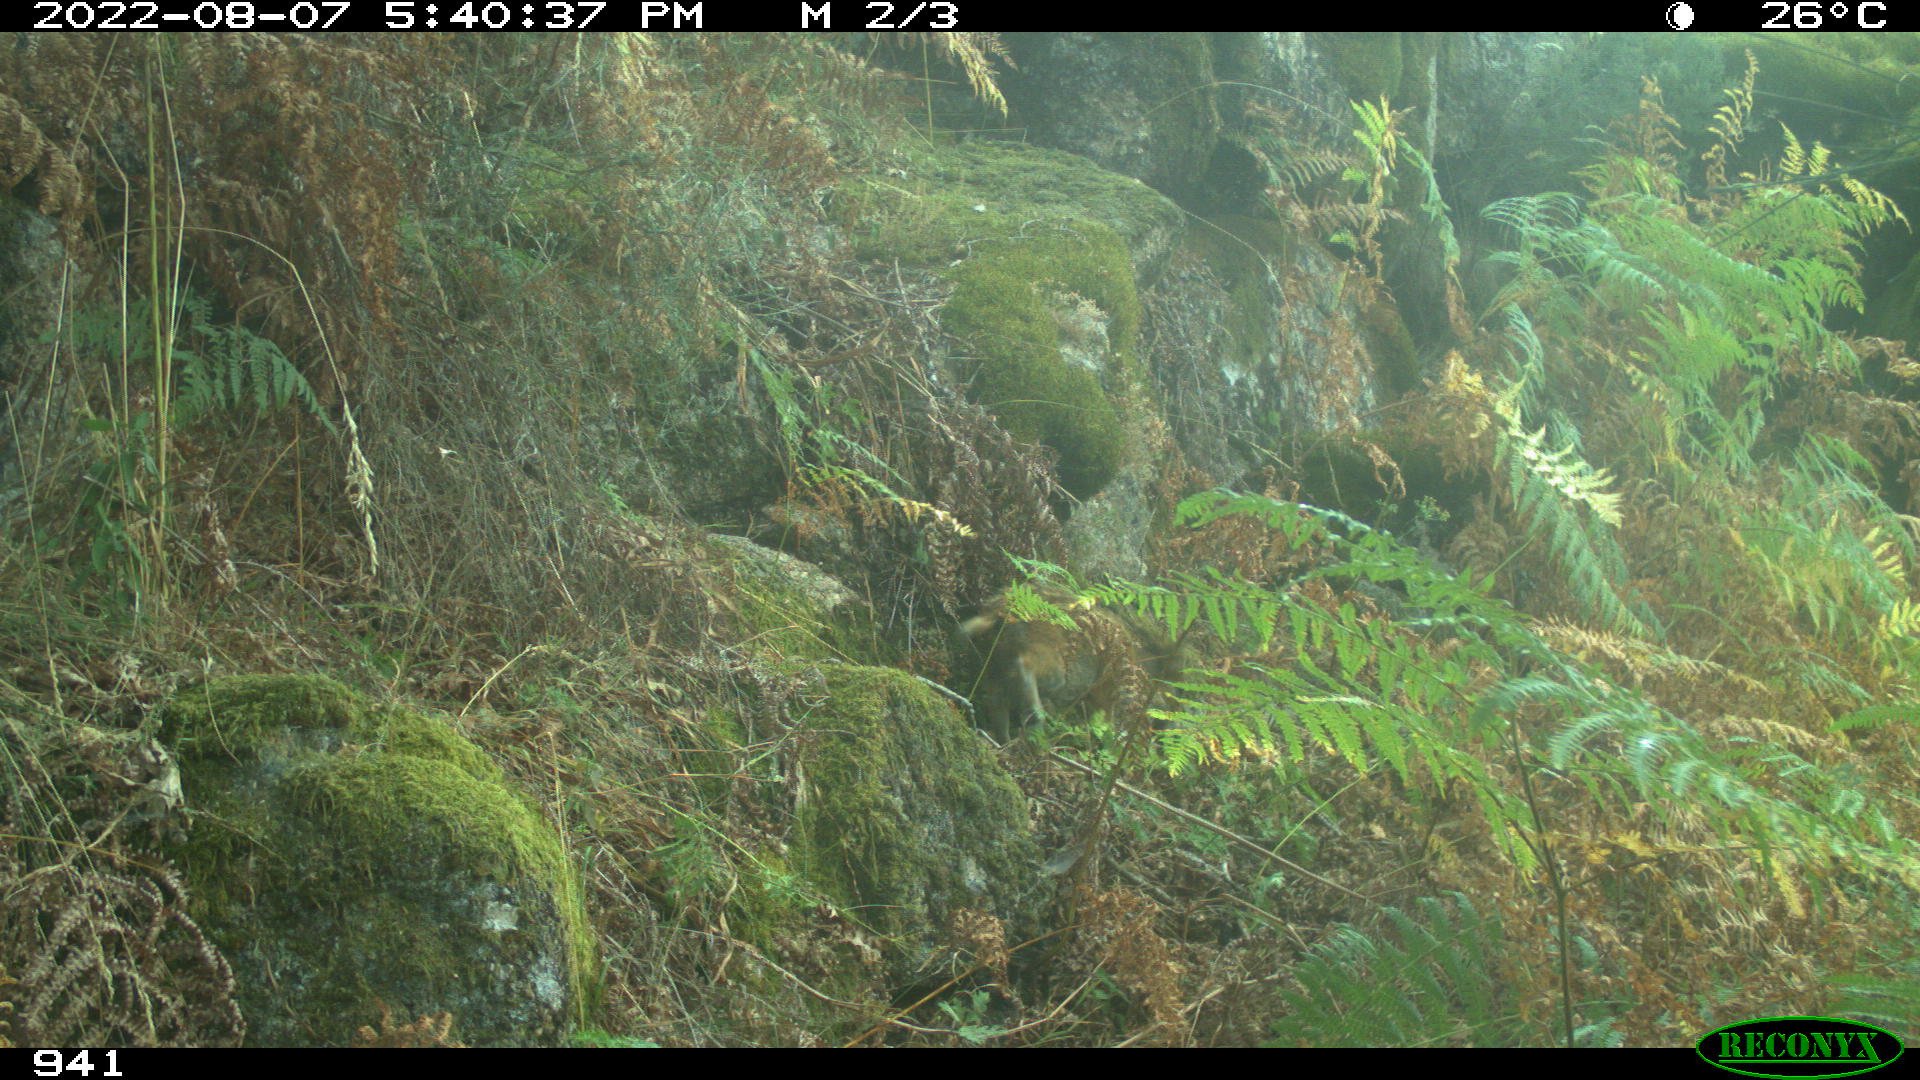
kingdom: Animalia
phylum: Chordata
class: Mammalia
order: Artiodactyla
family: Suidae
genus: Sus
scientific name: Sus scrofa
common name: Wild boar
